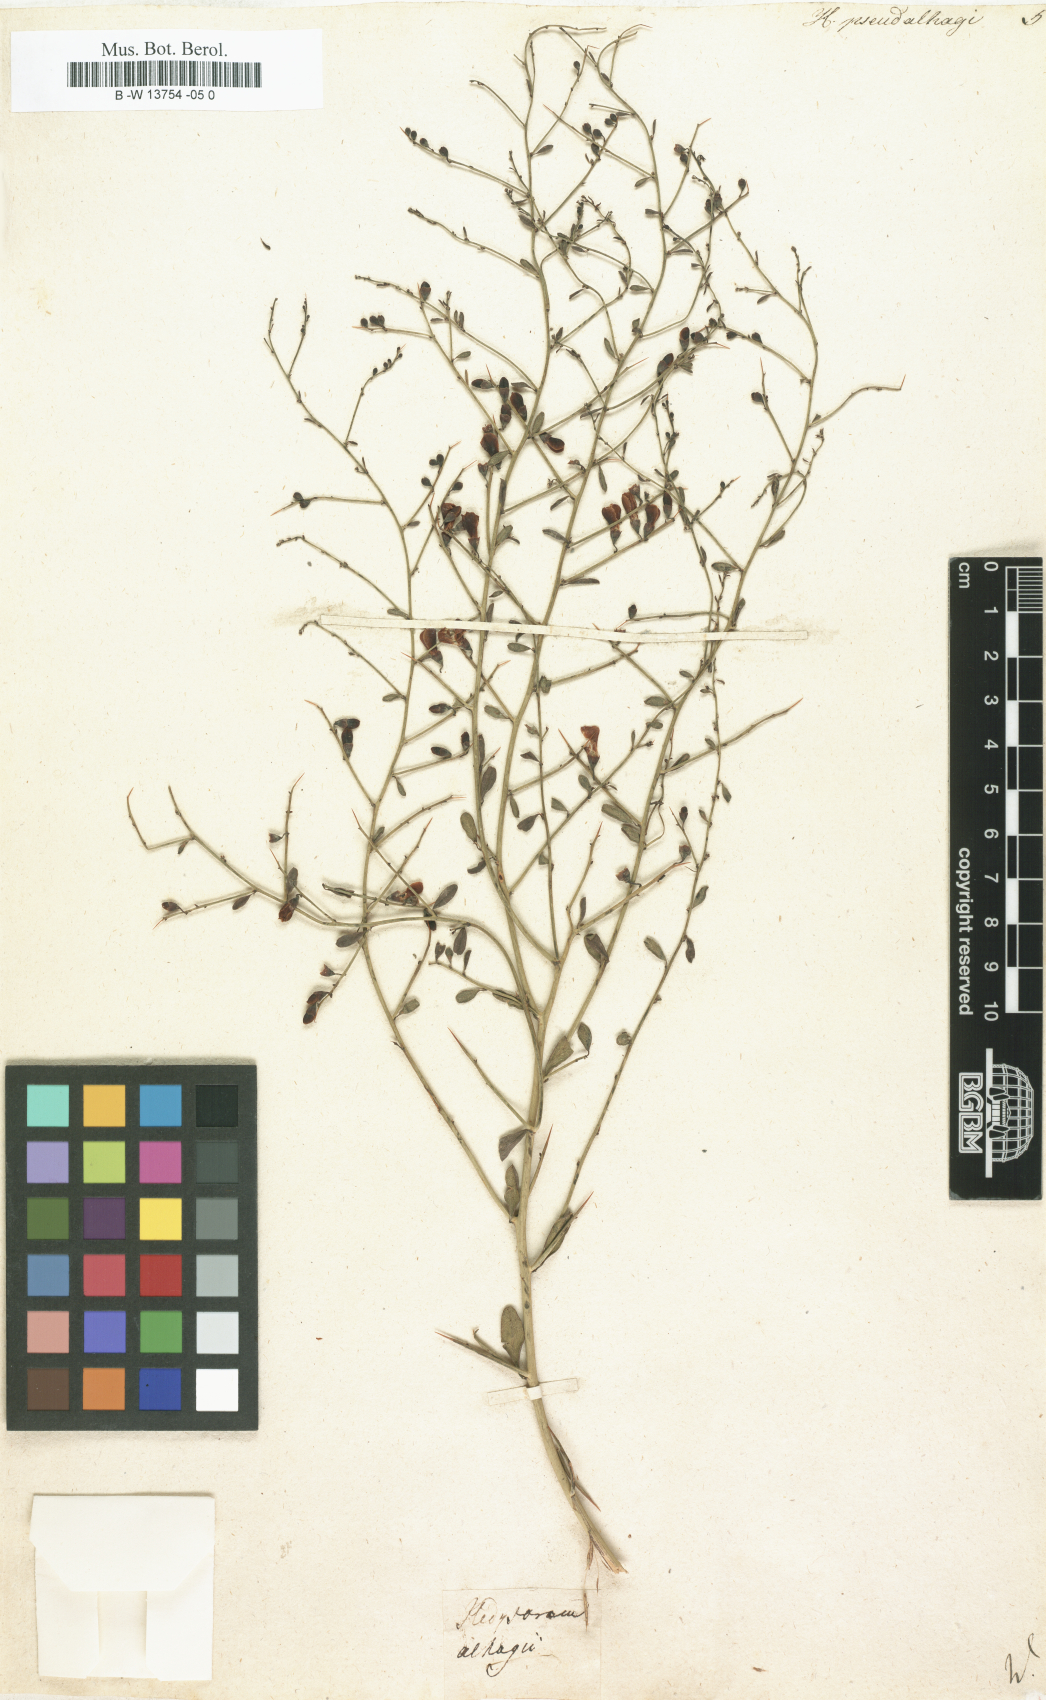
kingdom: Plantae
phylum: Tracheophyta
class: Magnoliopsida
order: Fabales
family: Fabaceae
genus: Alhagi
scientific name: Alhagi pseudalhagi
